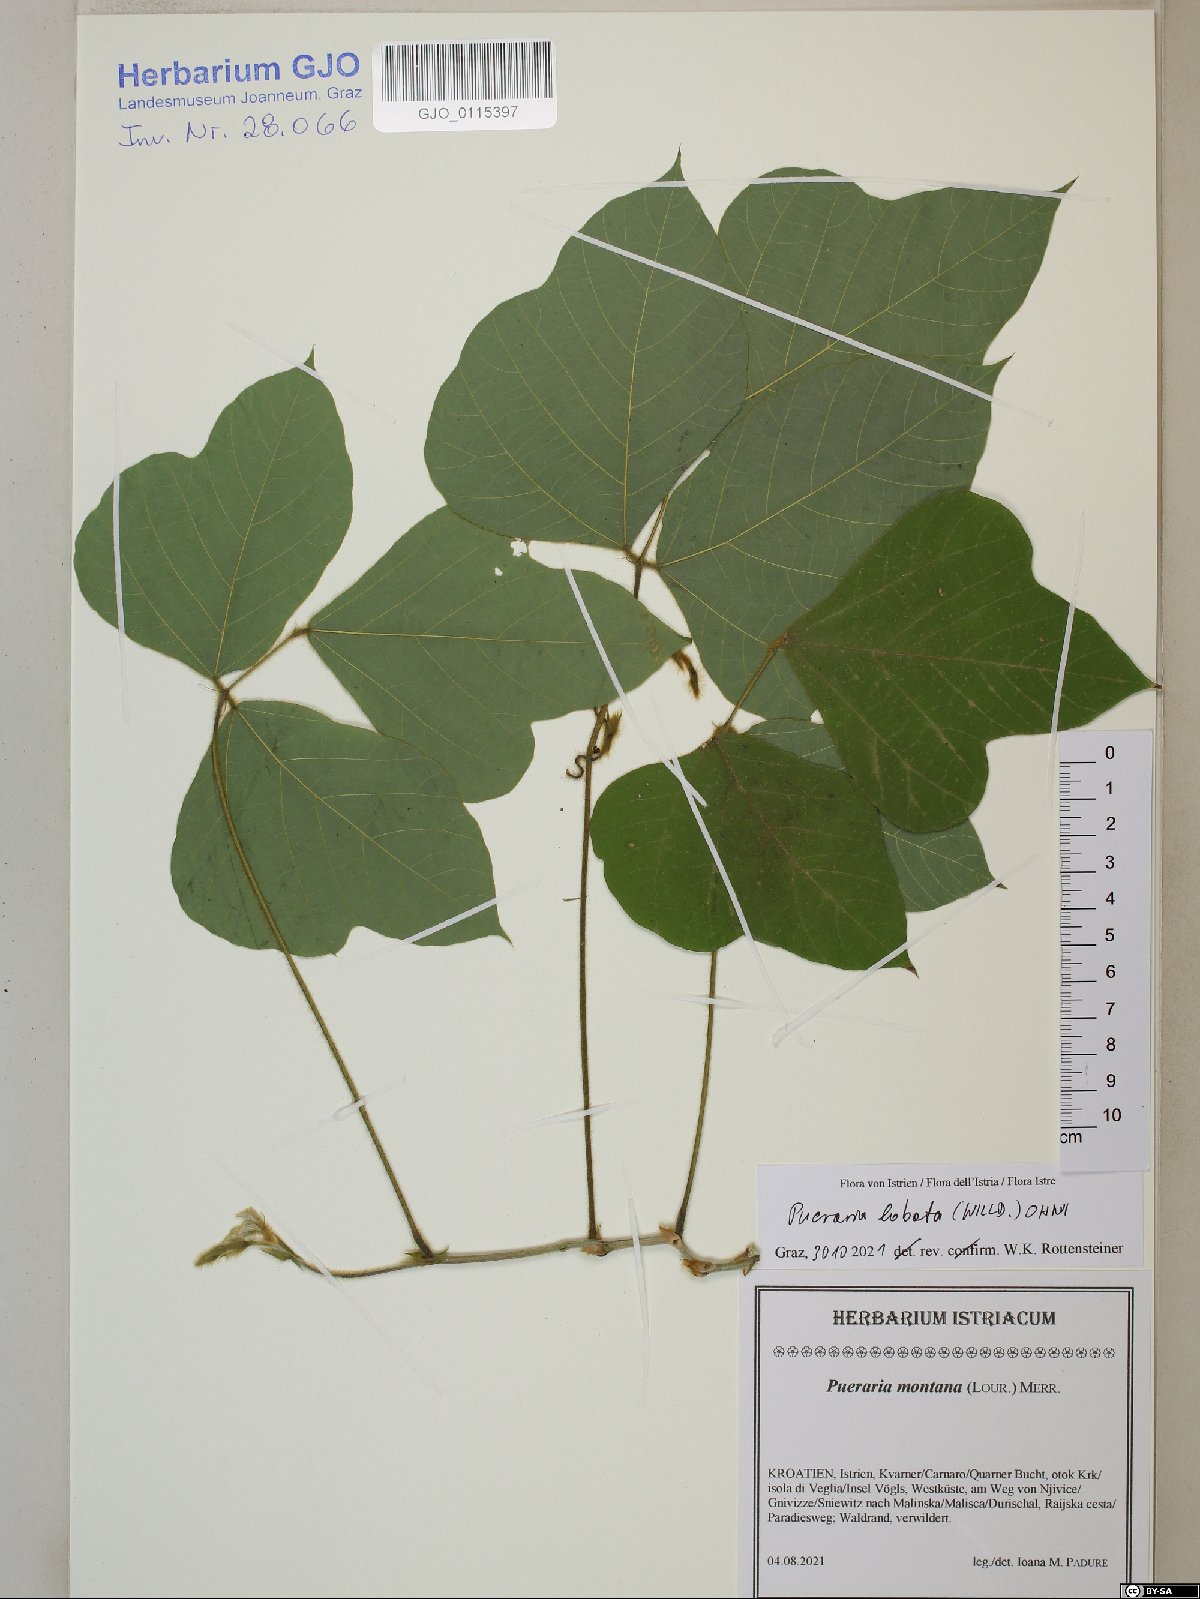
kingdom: Plantae
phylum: Tracheophyta
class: Magnoliopsida
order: Fabales
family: Fabaceae
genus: Pueraria
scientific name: Pueraria montana
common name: Kudzu
